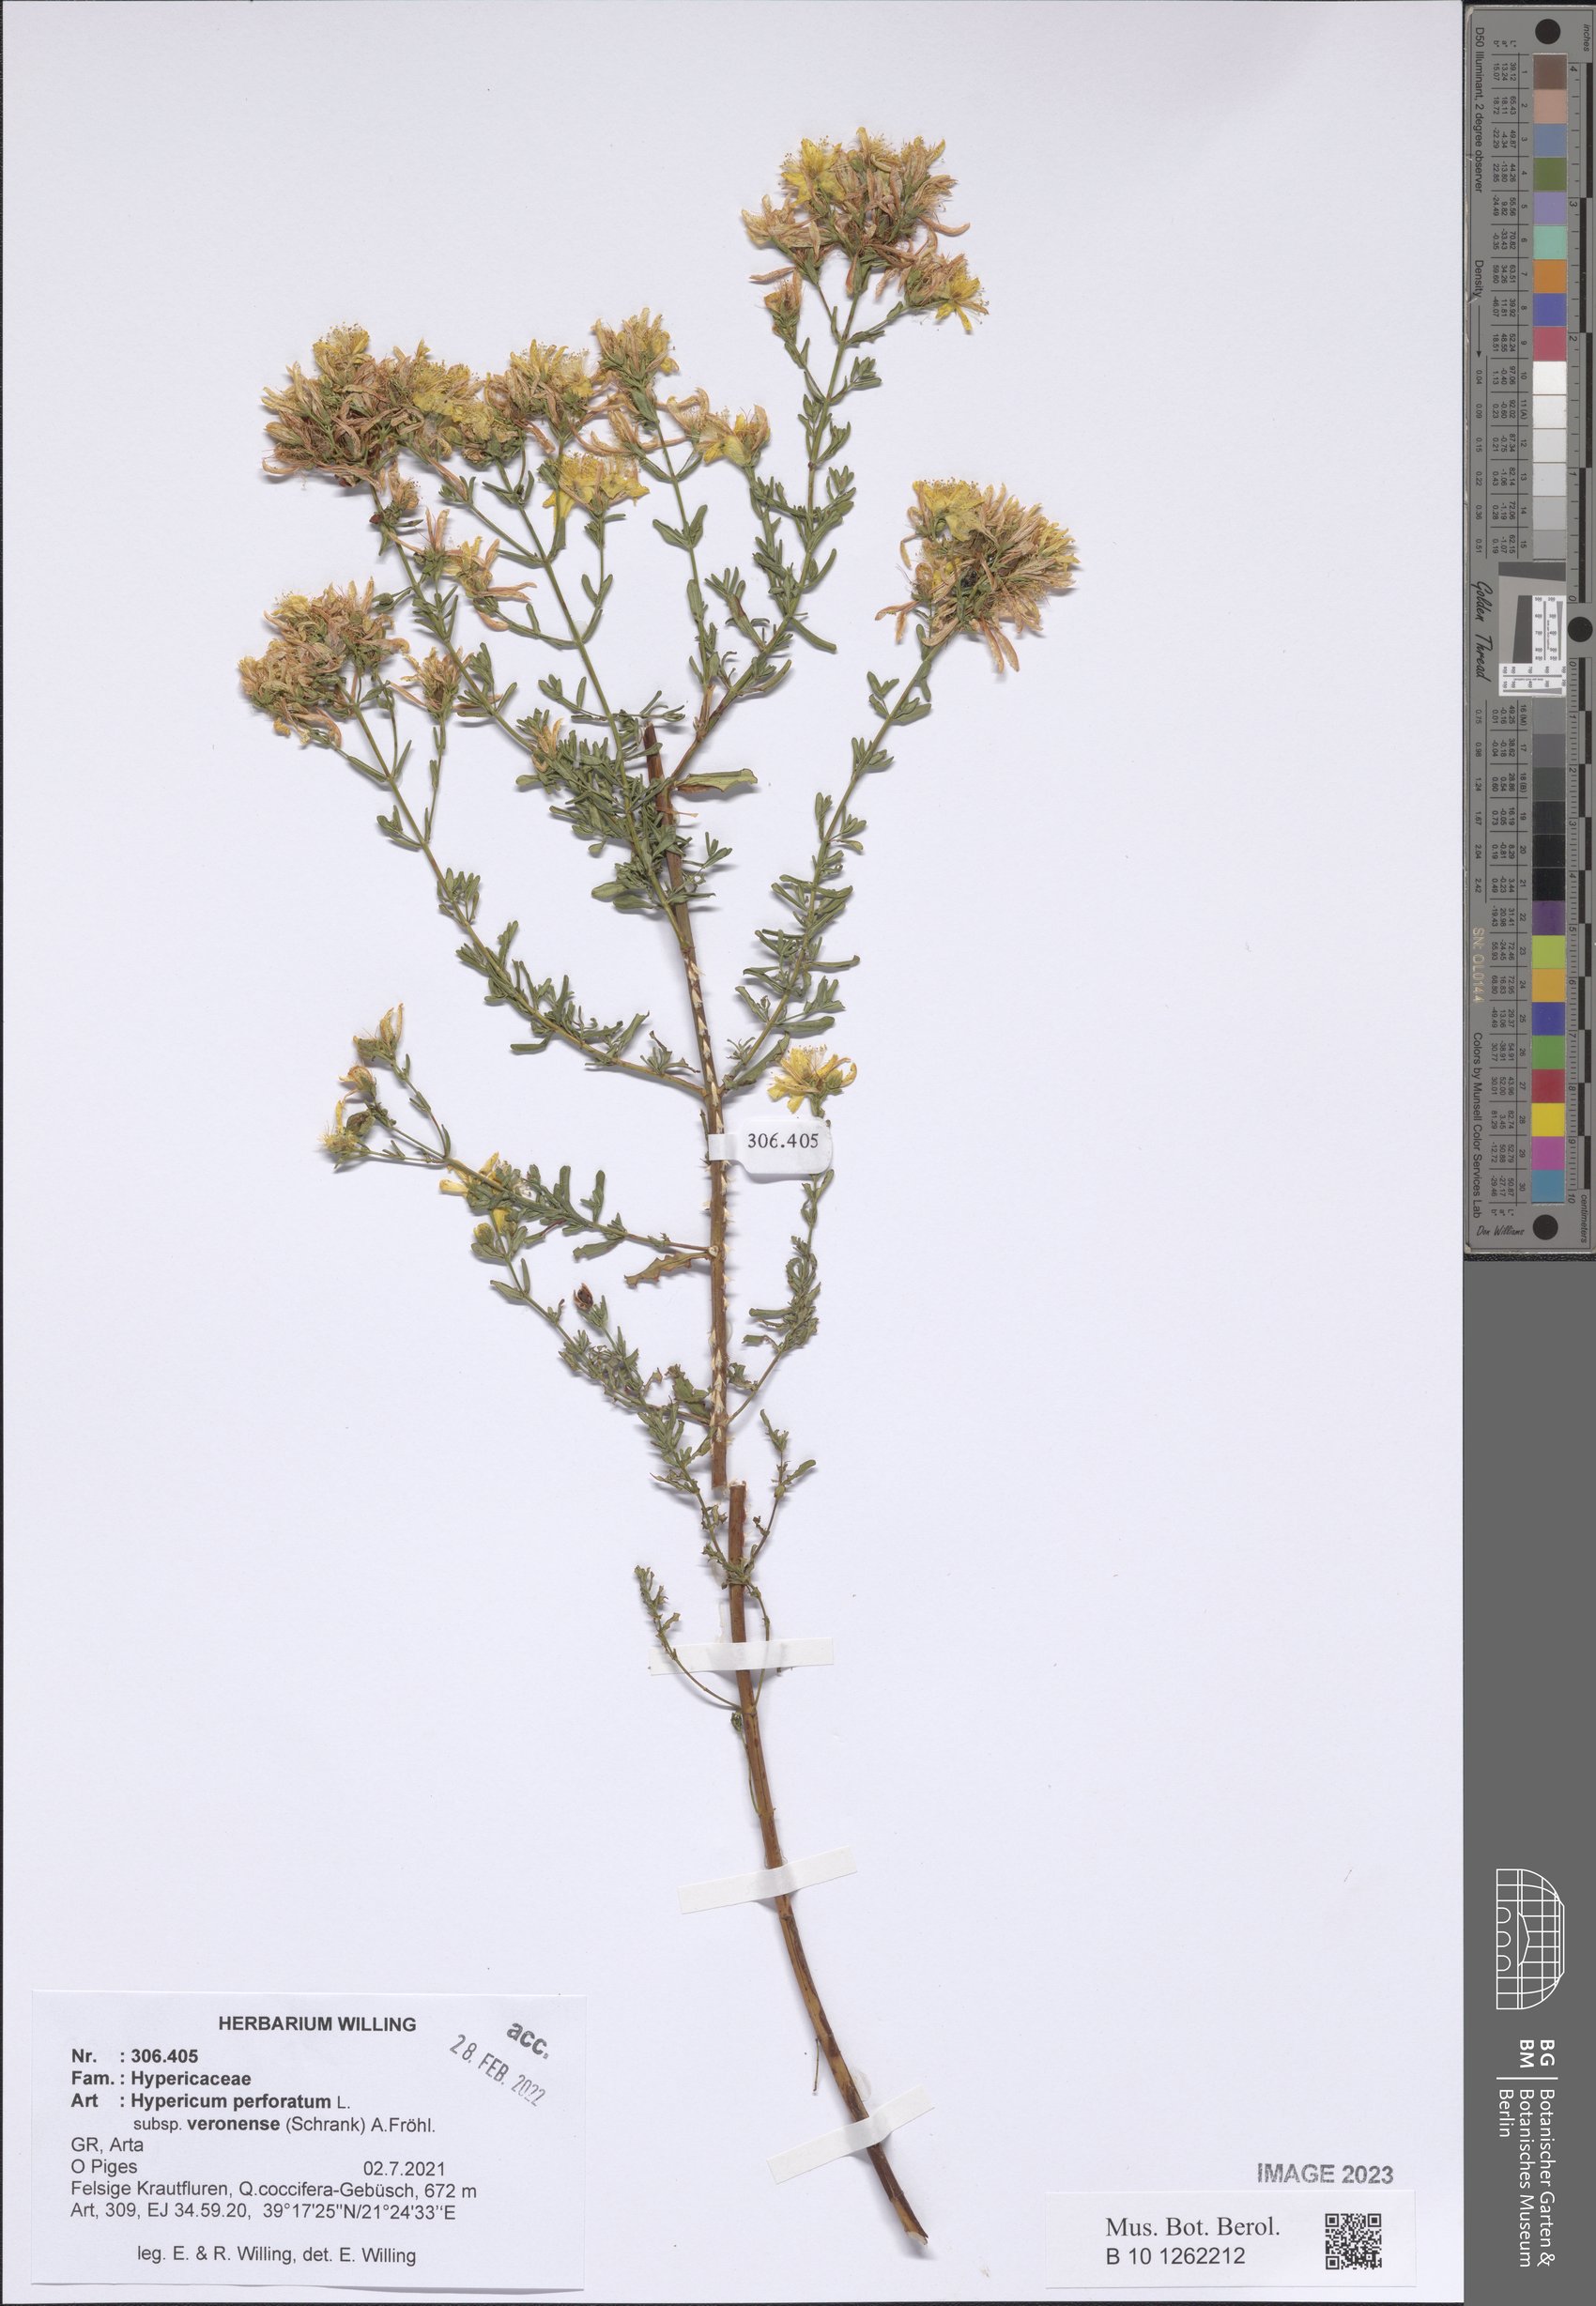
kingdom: Plantae
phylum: Tracheophyta
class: Magnoliopsida
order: Malpighiales
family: Hypericaceae
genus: Hypericum
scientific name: Hypericum veronense
